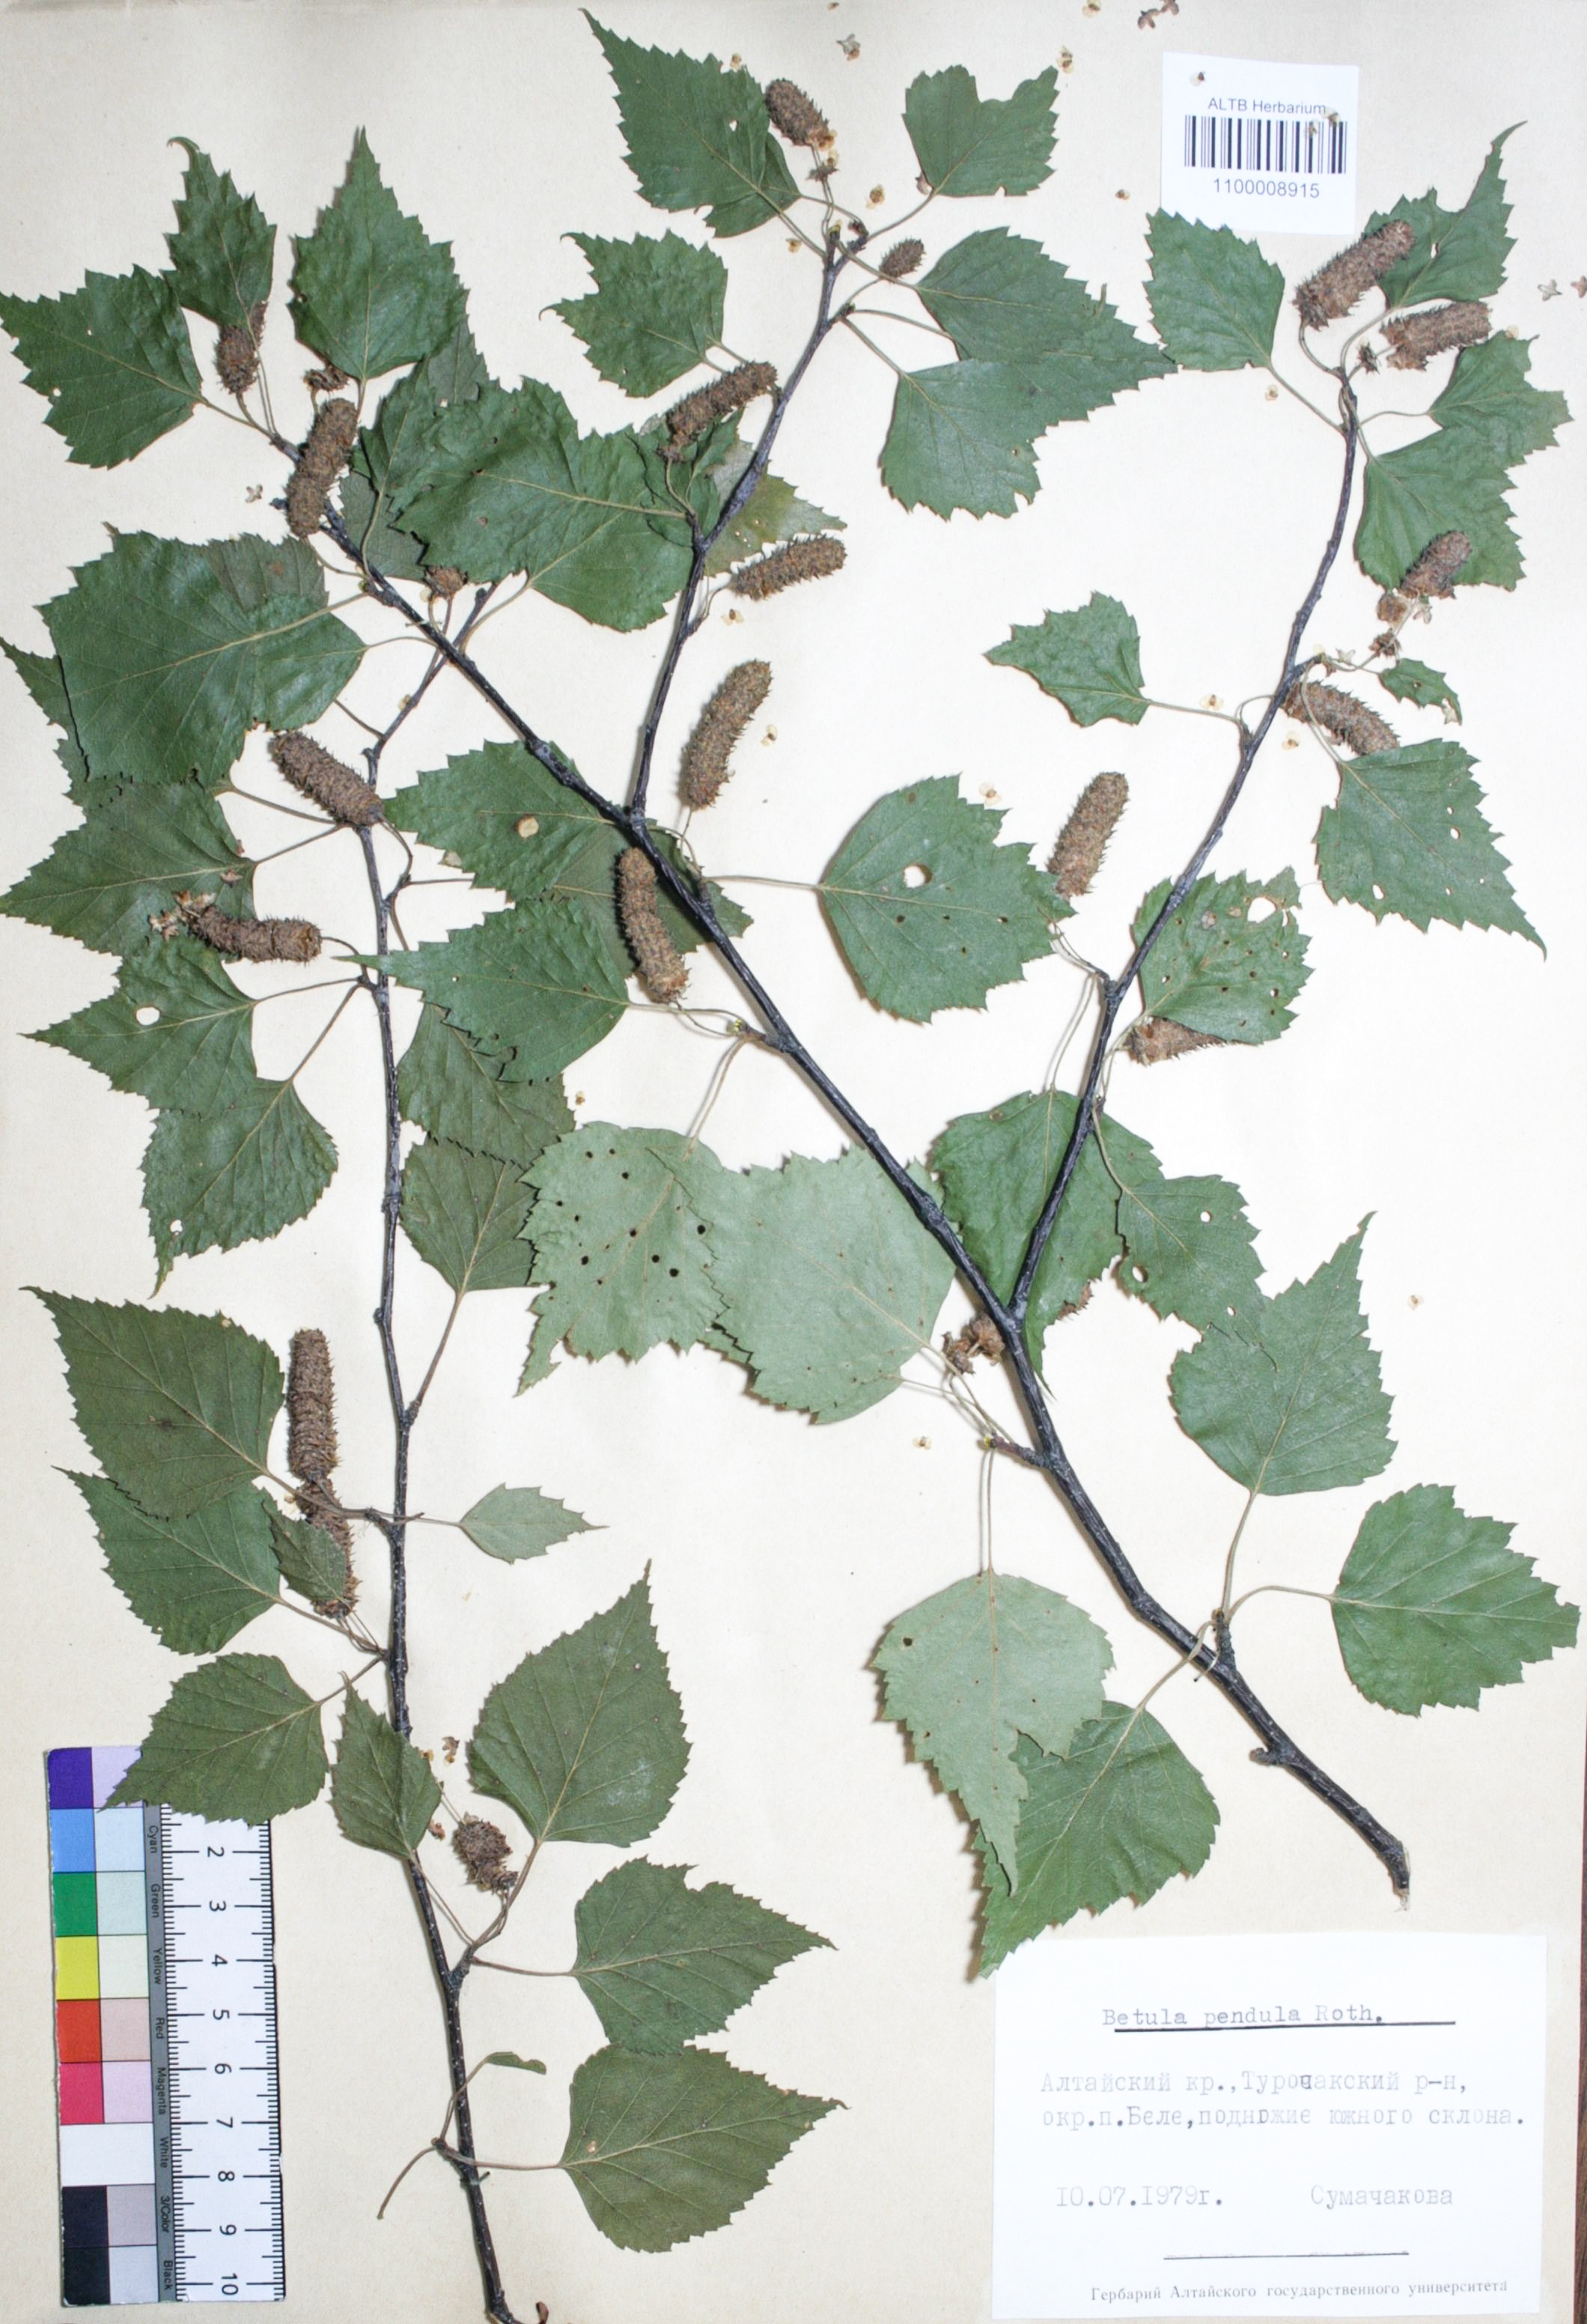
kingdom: Plantae
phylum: Tracheophyta
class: Magnoliopsida
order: Fagales
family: Betulaceae
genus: Betula
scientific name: Betula pendula
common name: Silver birch
